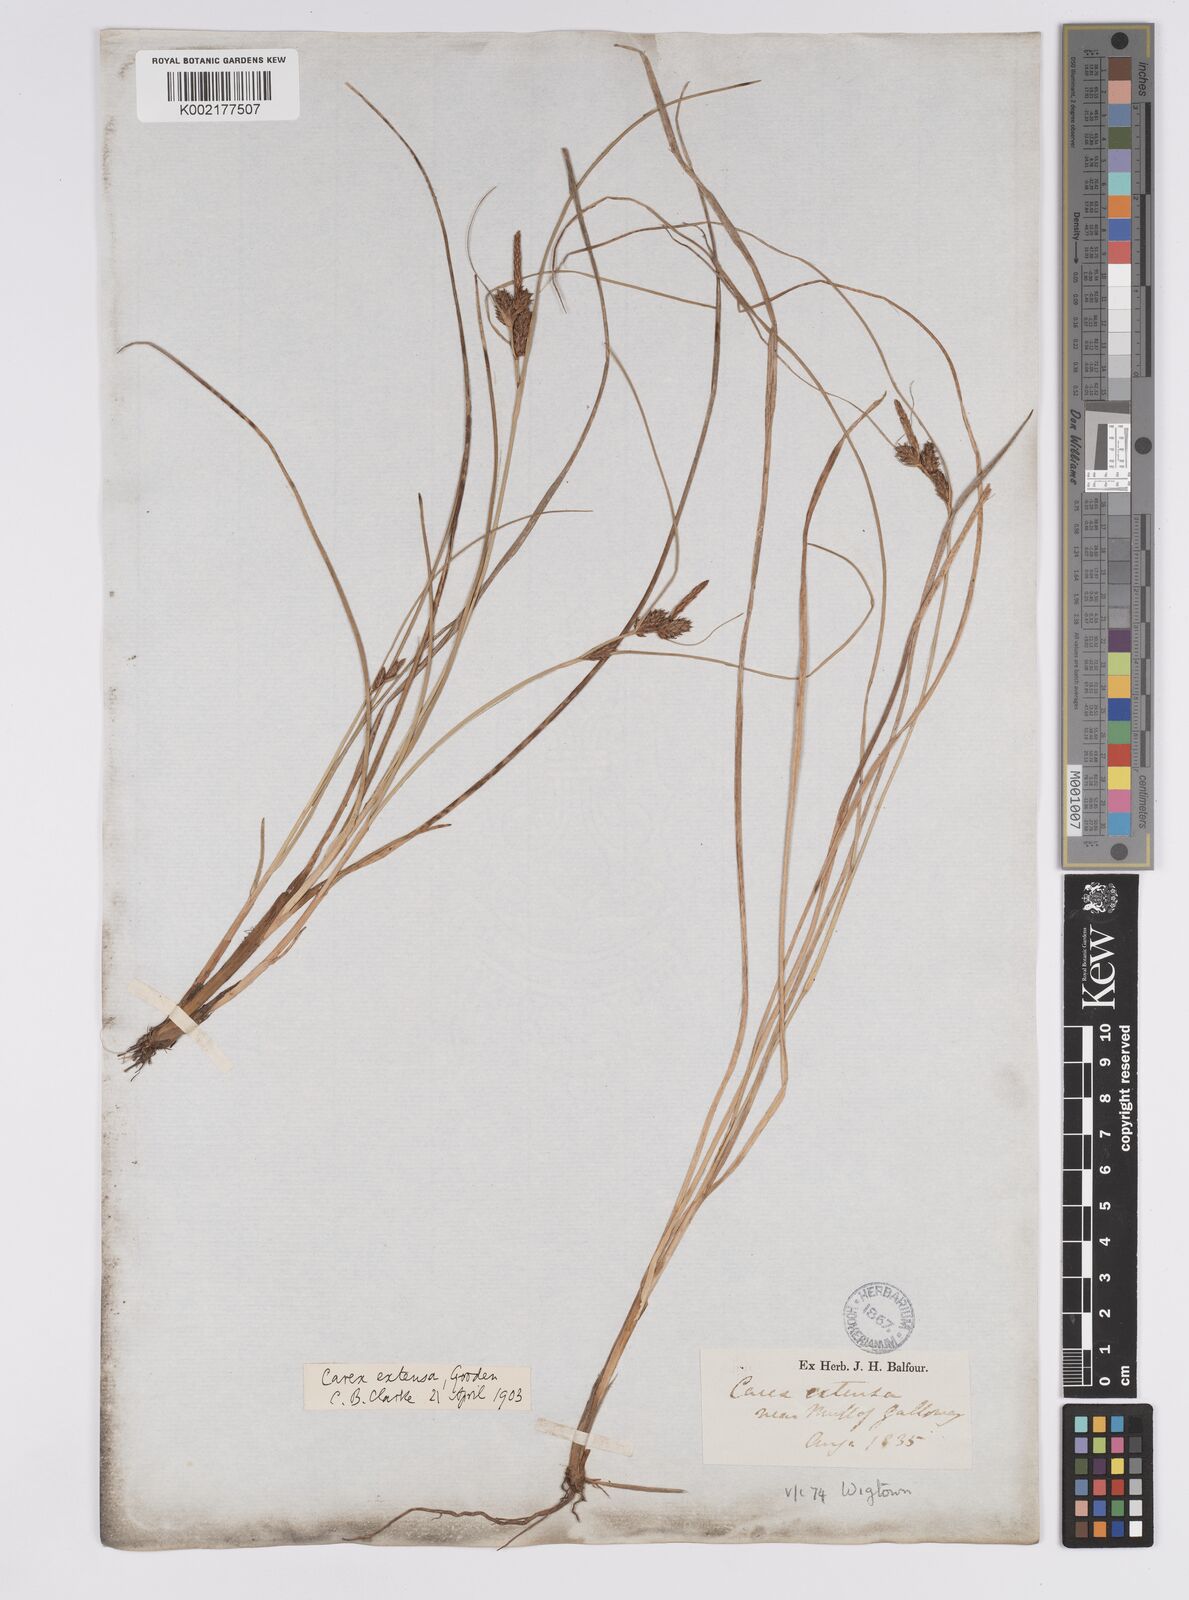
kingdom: Plantae
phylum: Tracheophyta
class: Liliopsida
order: Poales
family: Cyperaceae
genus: Carex
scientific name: Carex extensa
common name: Long-bracted sedge
